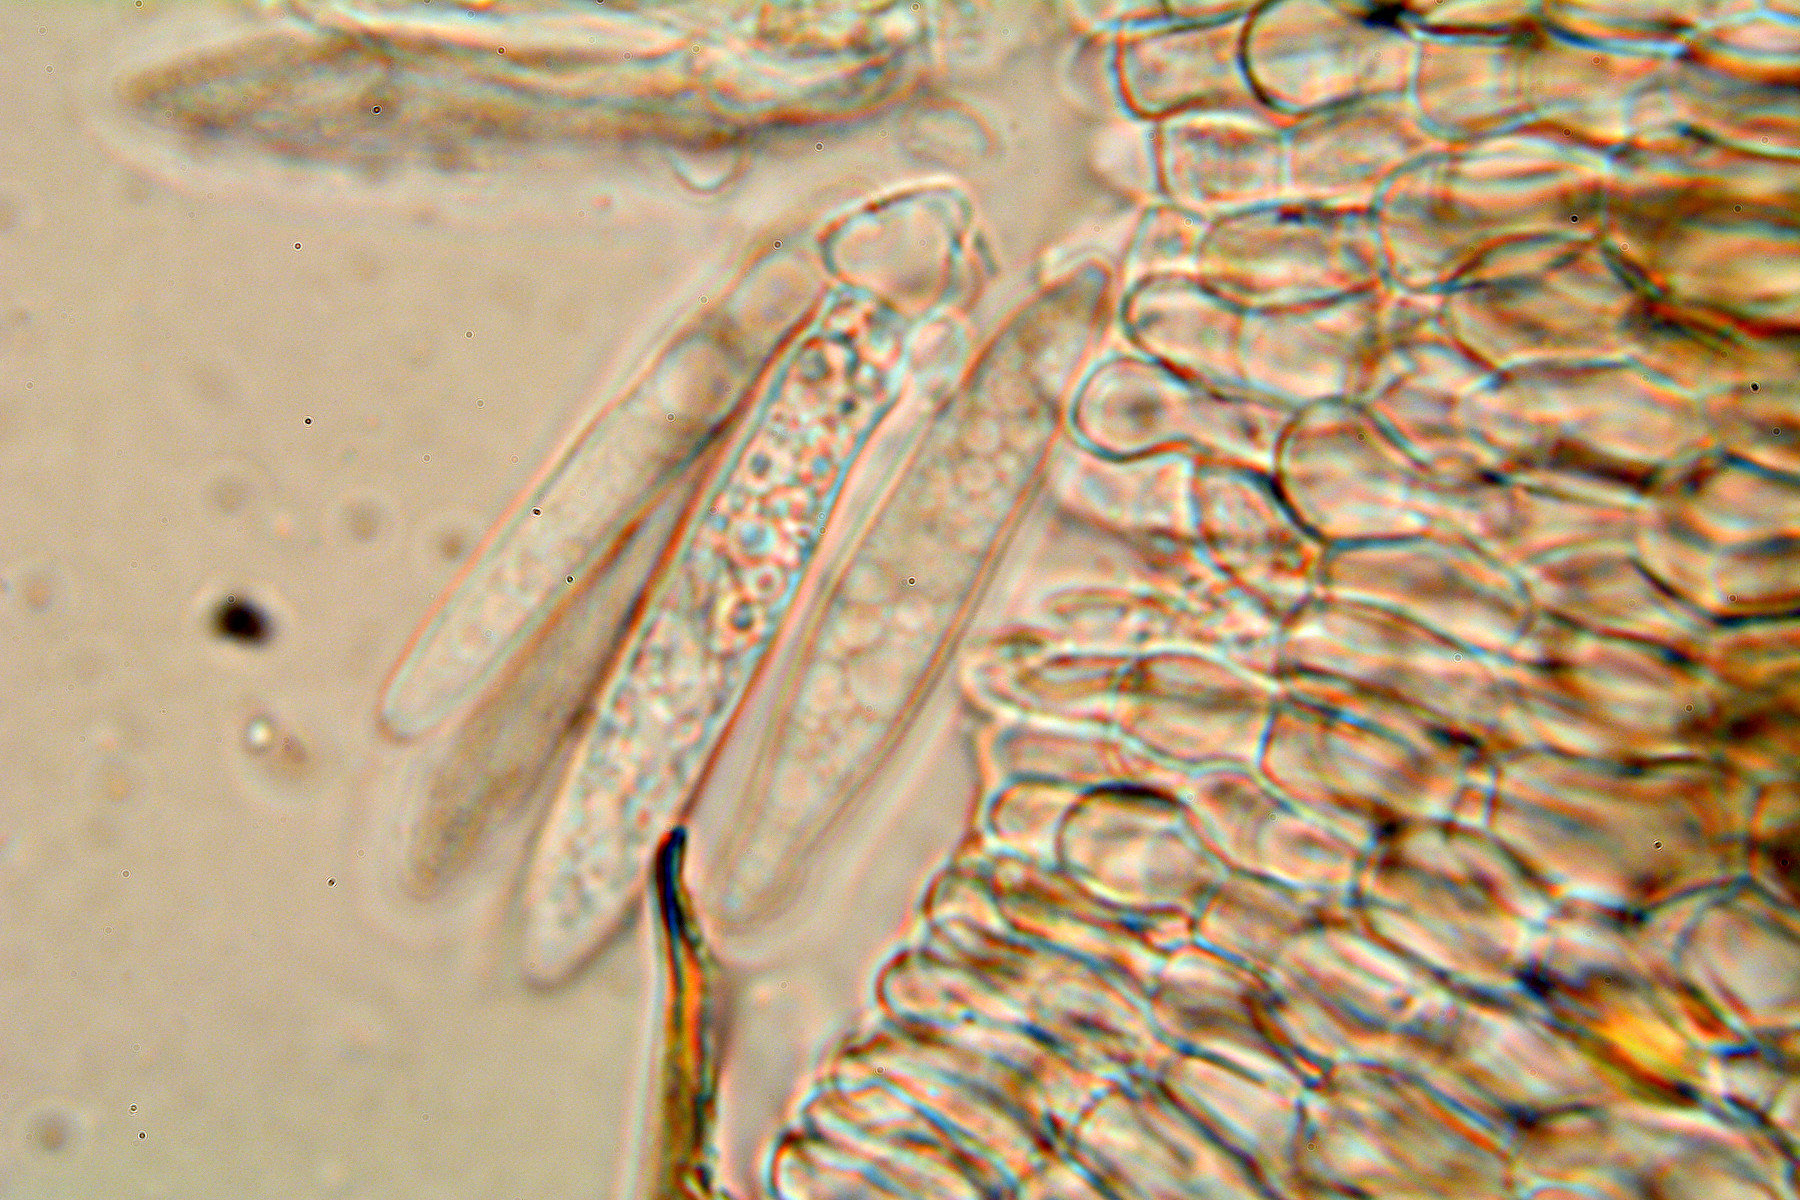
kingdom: Fungi
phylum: Ascomycota
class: Leotiomycetes
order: Helotiales
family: Ploettnerulaceae
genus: Pyrenopeziza
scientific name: Pyrenopeziza pulveracea
